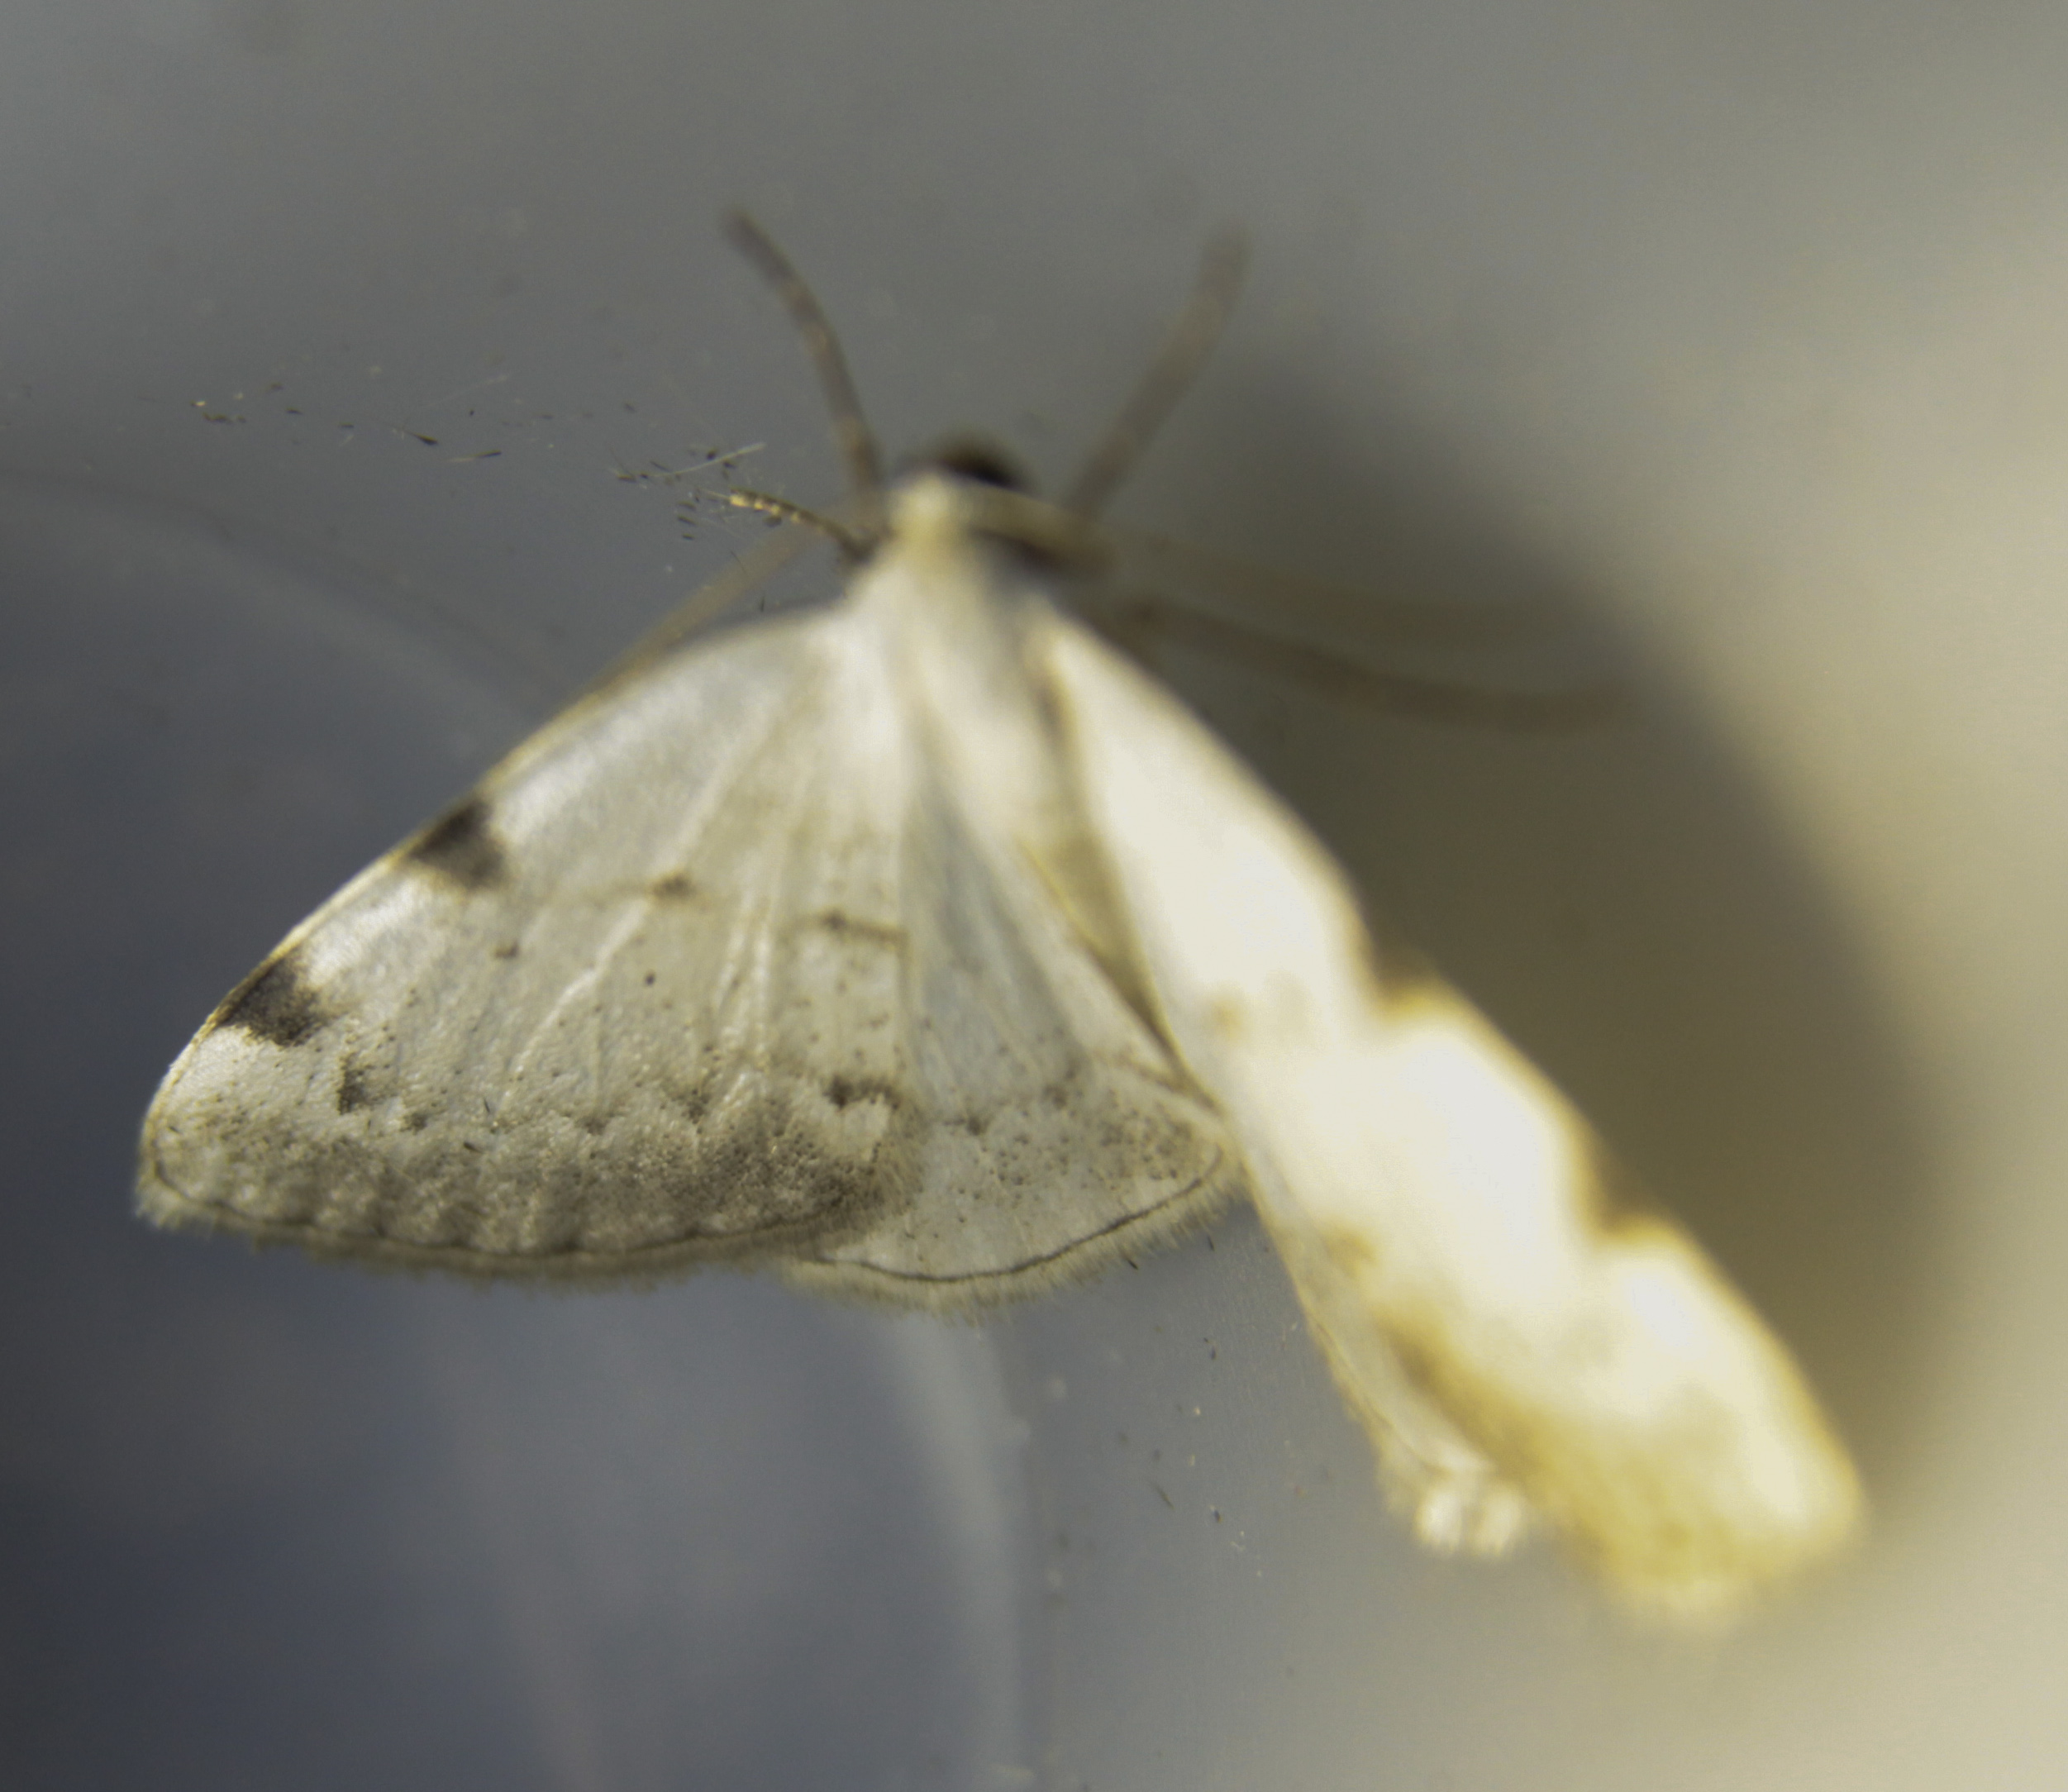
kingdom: Animalia
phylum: Arthropoda
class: Insecta
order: Lepidoptera
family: Geometridae
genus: Lomographa
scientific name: Lomographa bimaculata
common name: White-pinion spotted
